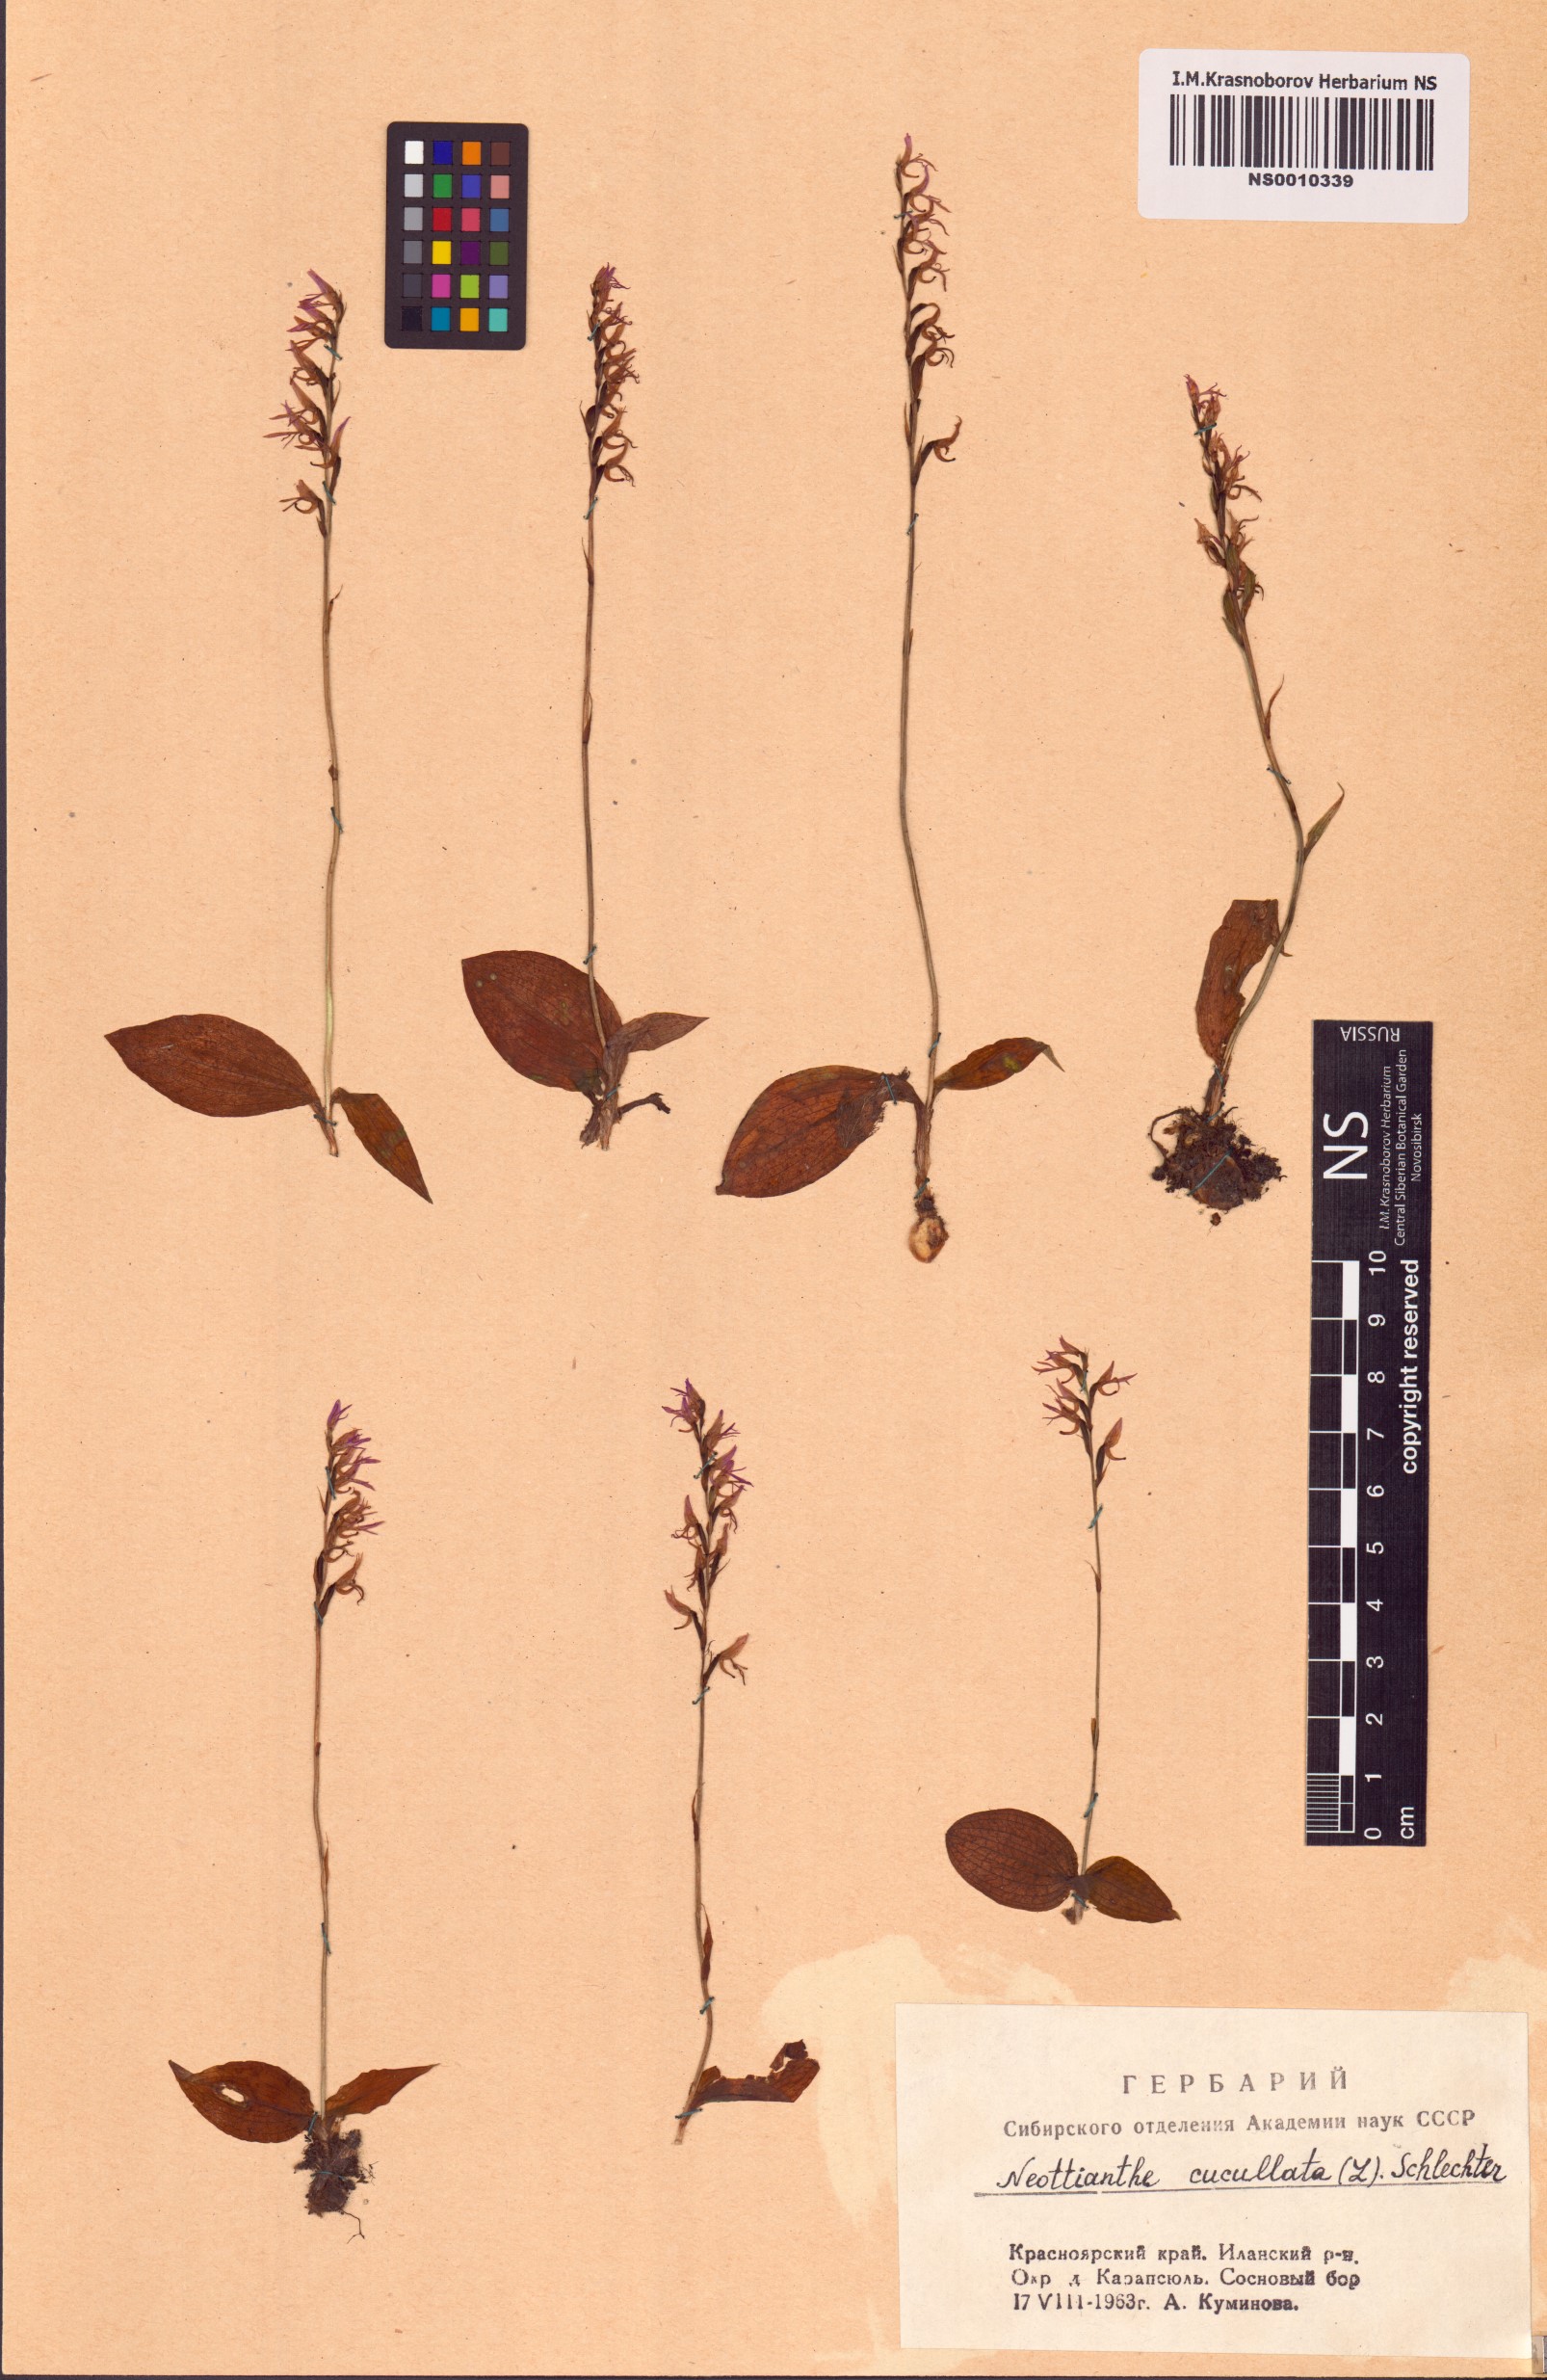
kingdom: Plantae
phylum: Tracheophyta
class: Liliopsida
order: Asparagales
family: Orchidaceae
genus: Hemipilia
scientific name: Hemipilia cucullata
